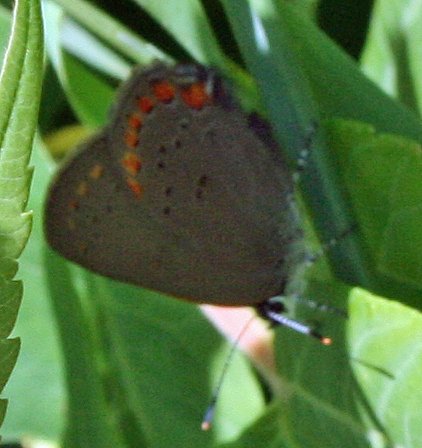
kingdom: Animalia
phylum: Arthropoda
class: Insecta
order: Lepidoptera
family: Lycaenidae
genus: Harkenclenus
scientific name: Harkenclenus titus
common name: Coral Hairstreak
